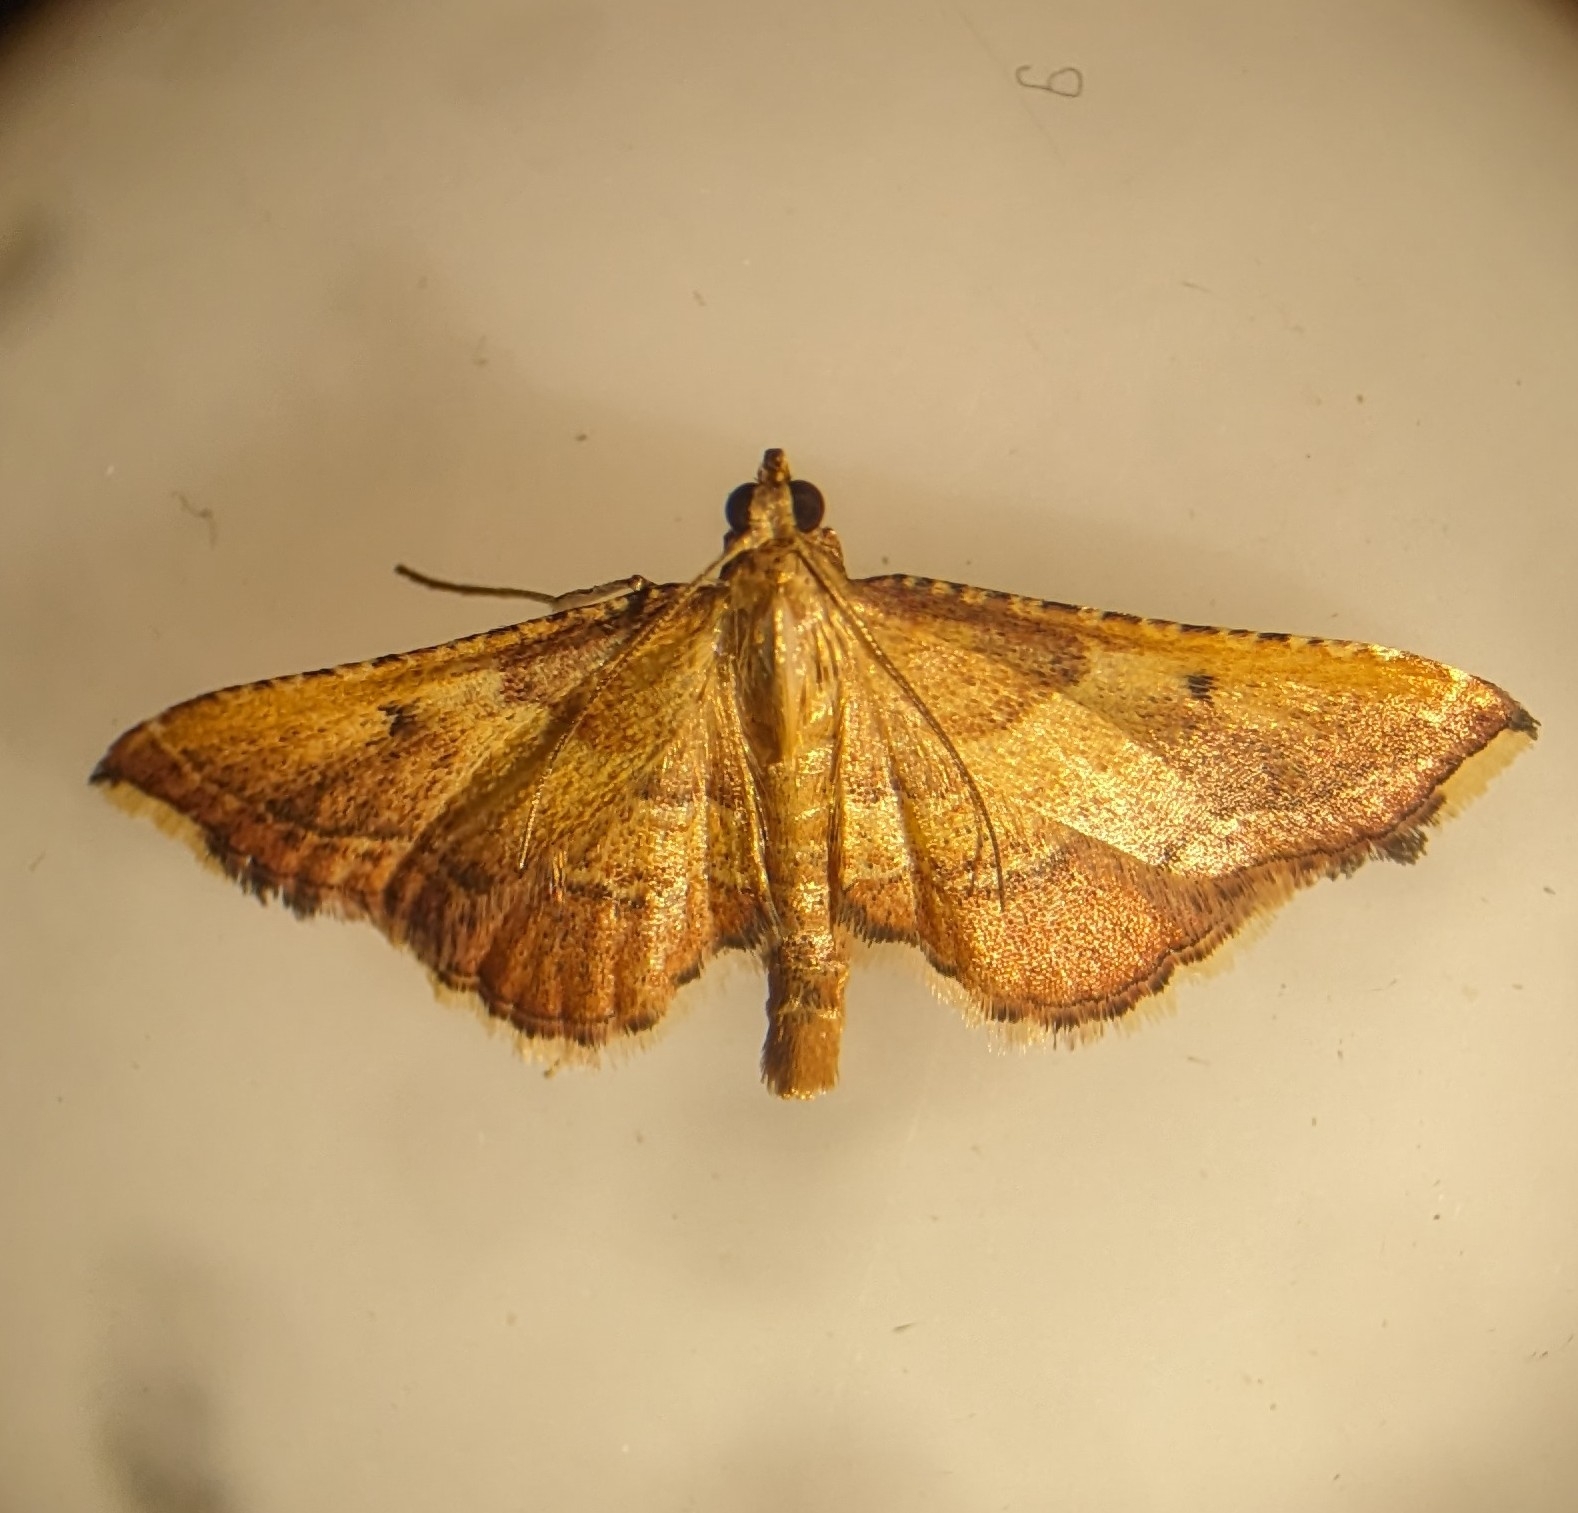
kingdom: Animalia
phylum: Arthropoda
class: Insecta
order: Lepidoptera
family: Pyralidae
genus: Endotricha
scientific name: Endotricha flammealis
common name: Løvkrathalvmøl
